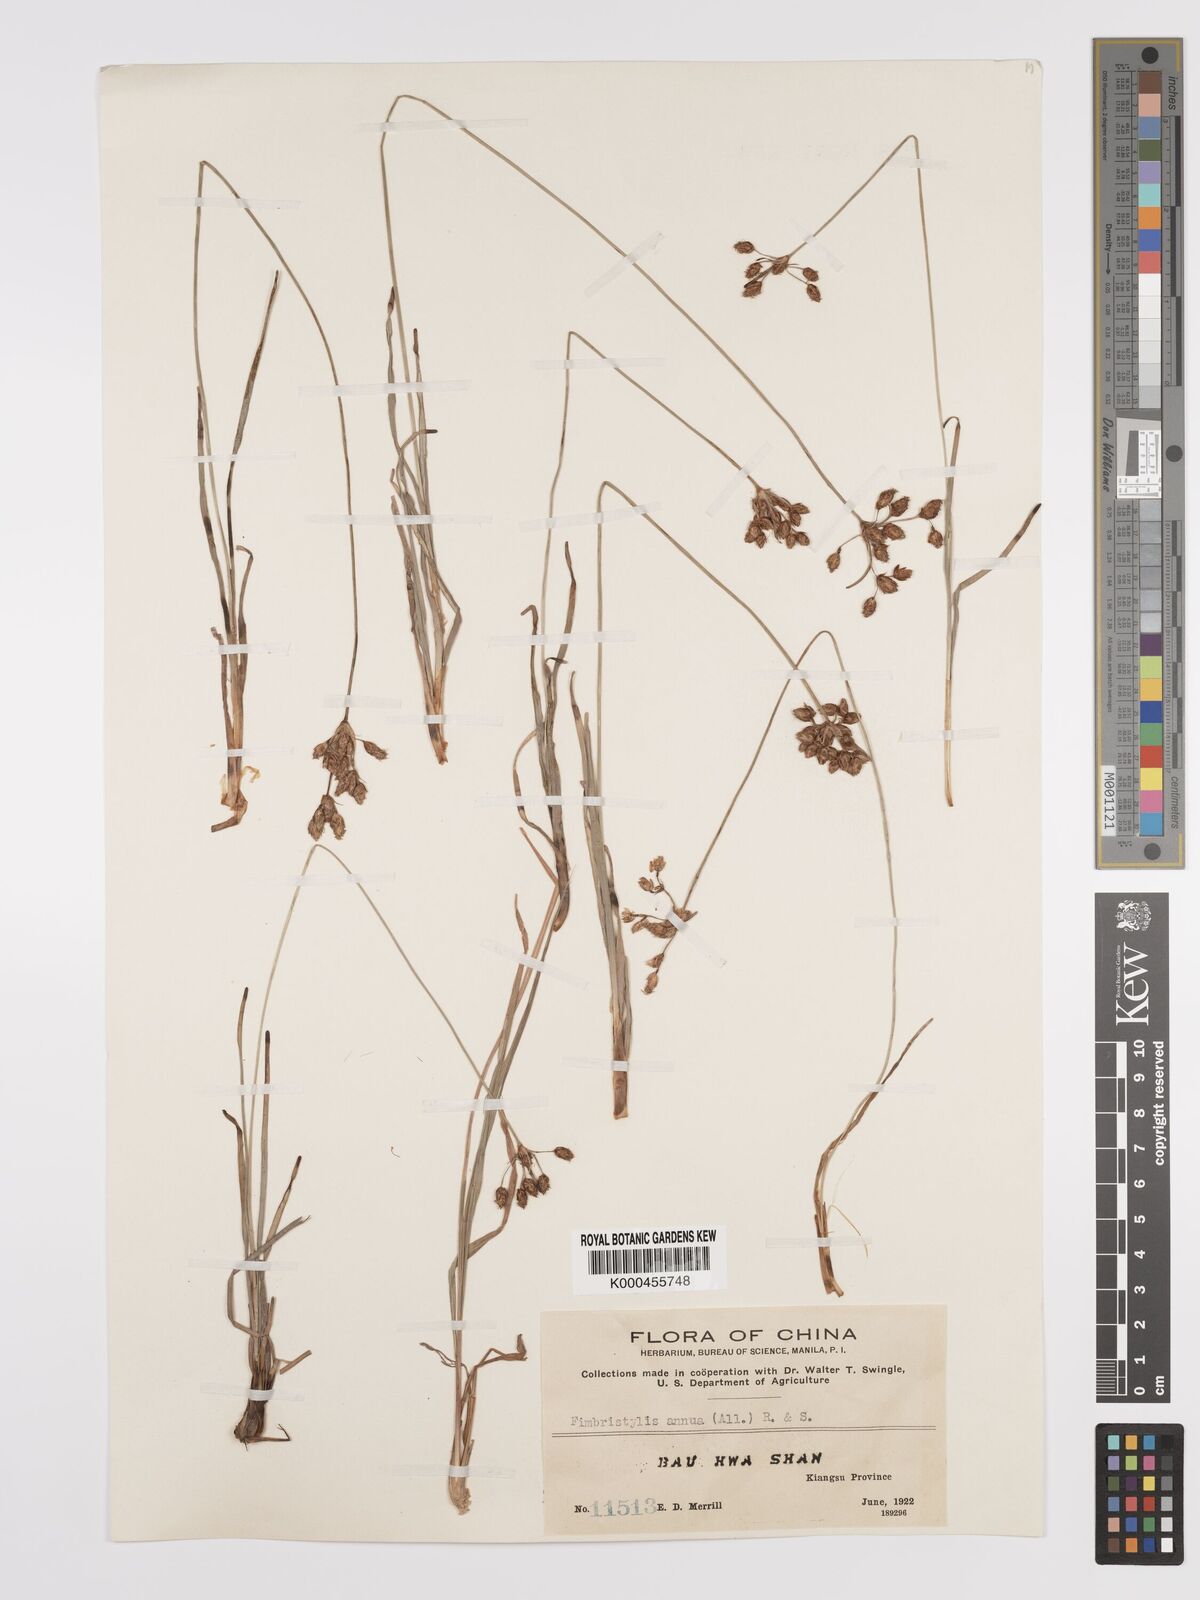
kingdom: Plantae
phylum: Tracheophyta
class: Liliopsida
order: Poales
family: Cyperaceae
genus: Fimbristylis
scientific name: Fimbristylis dichotoma
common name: Forked fimbry
